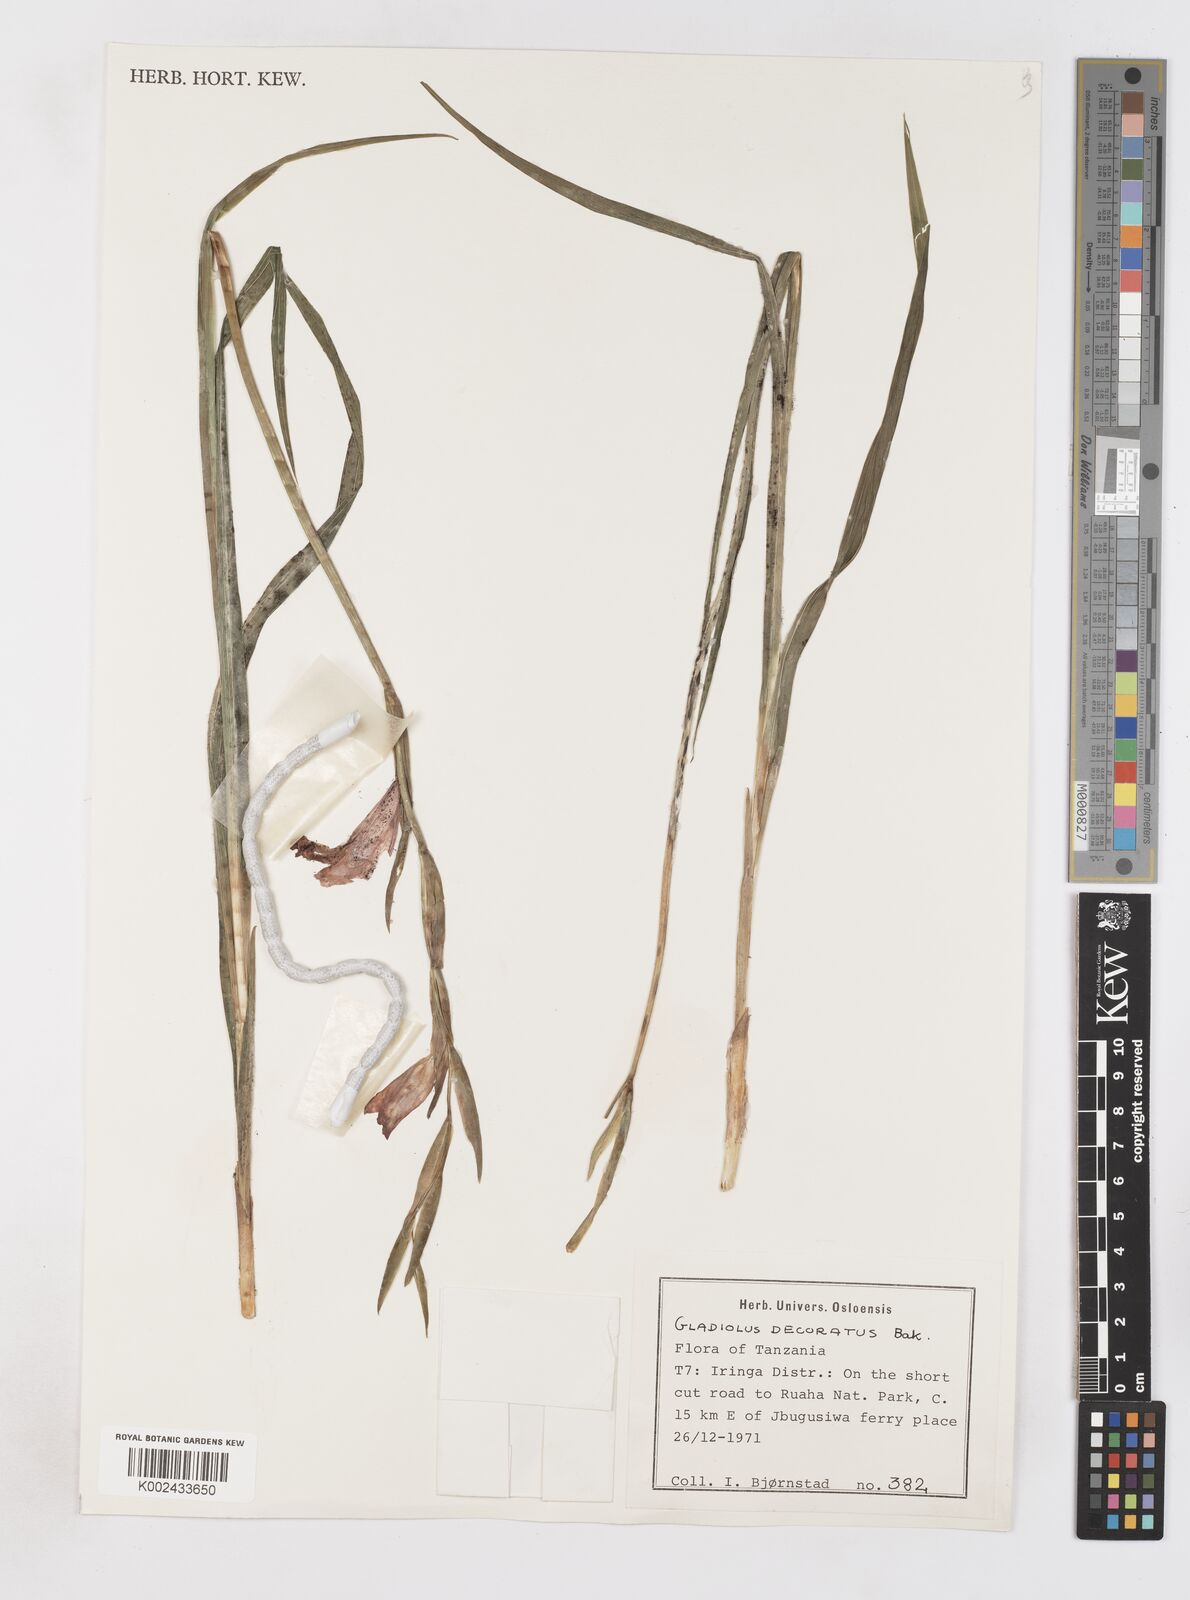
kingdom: Plantae
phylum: Tracheophyta
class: Liliopsida
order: Asparagales
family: Iridaceae
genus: Gladiolus
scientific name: Gladiolus decoratus
